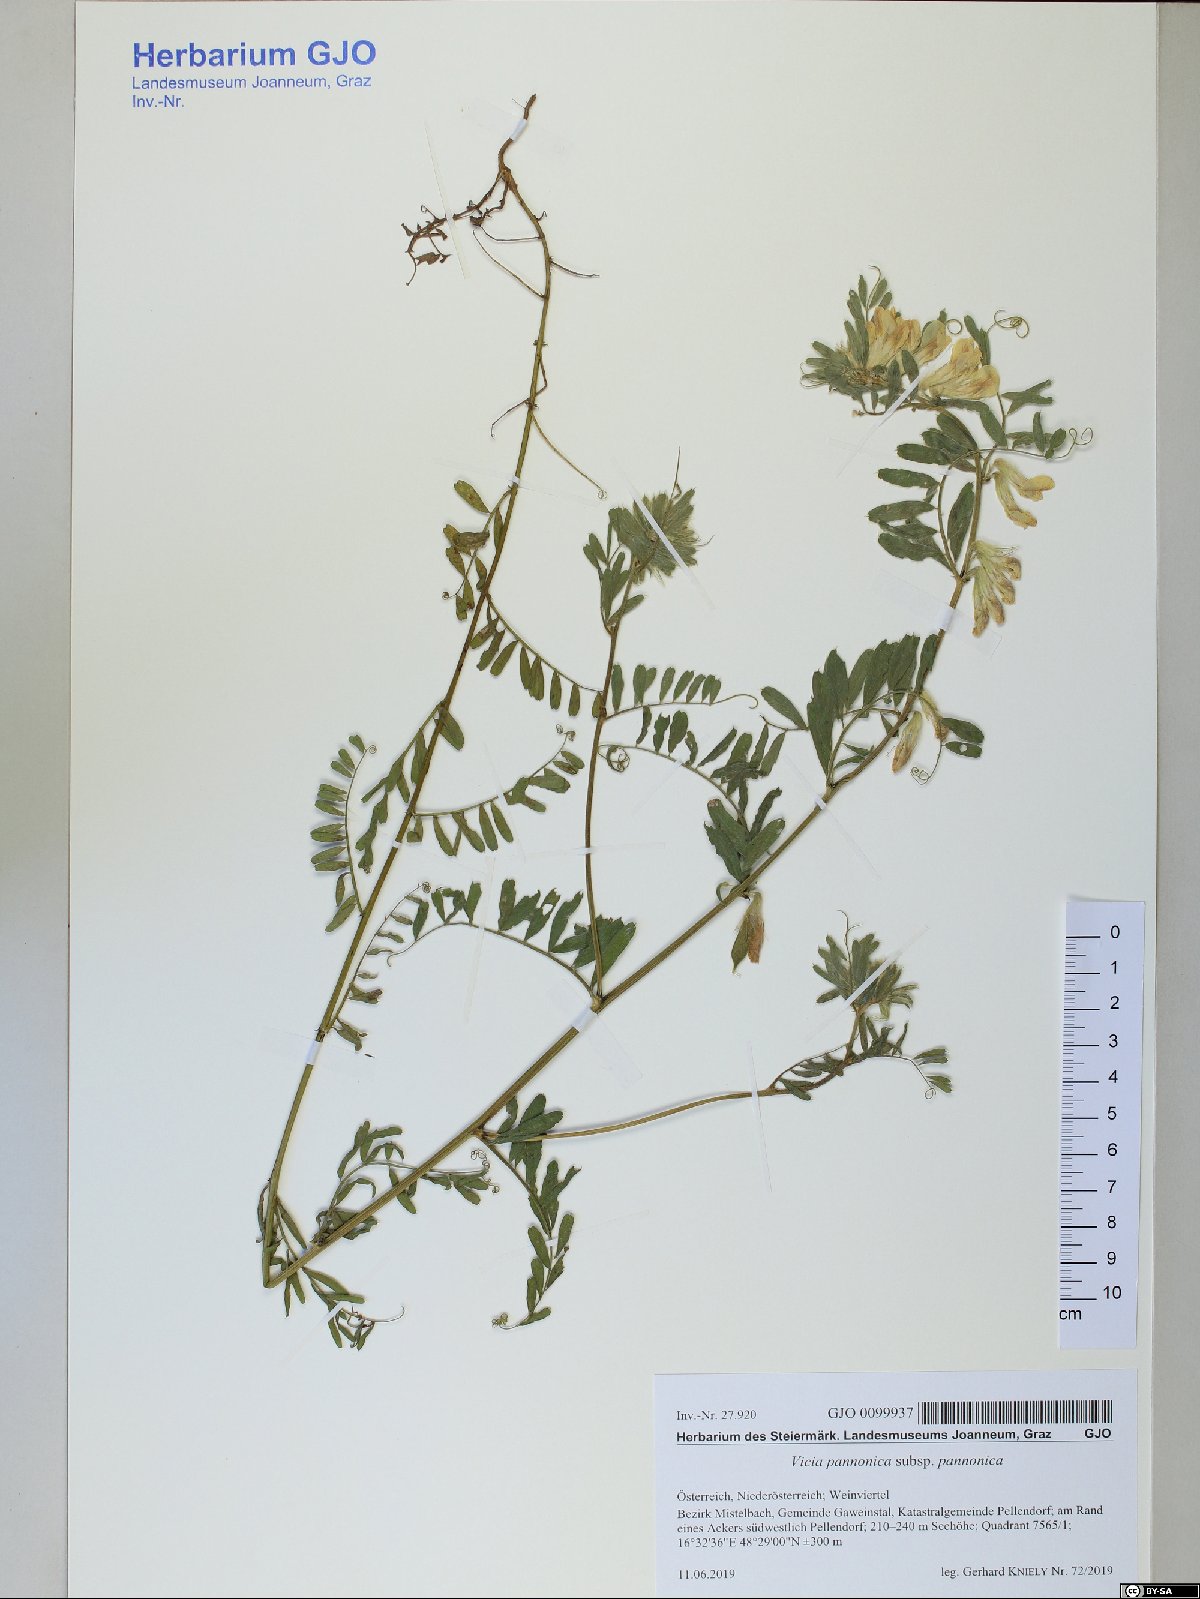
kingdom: Plantae
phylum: Tracheophyta
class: Magnoliopsida
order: Fabales
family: Fabaceae
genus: Vicia
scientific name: Vicia pannonica
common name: Hungarian vetch
